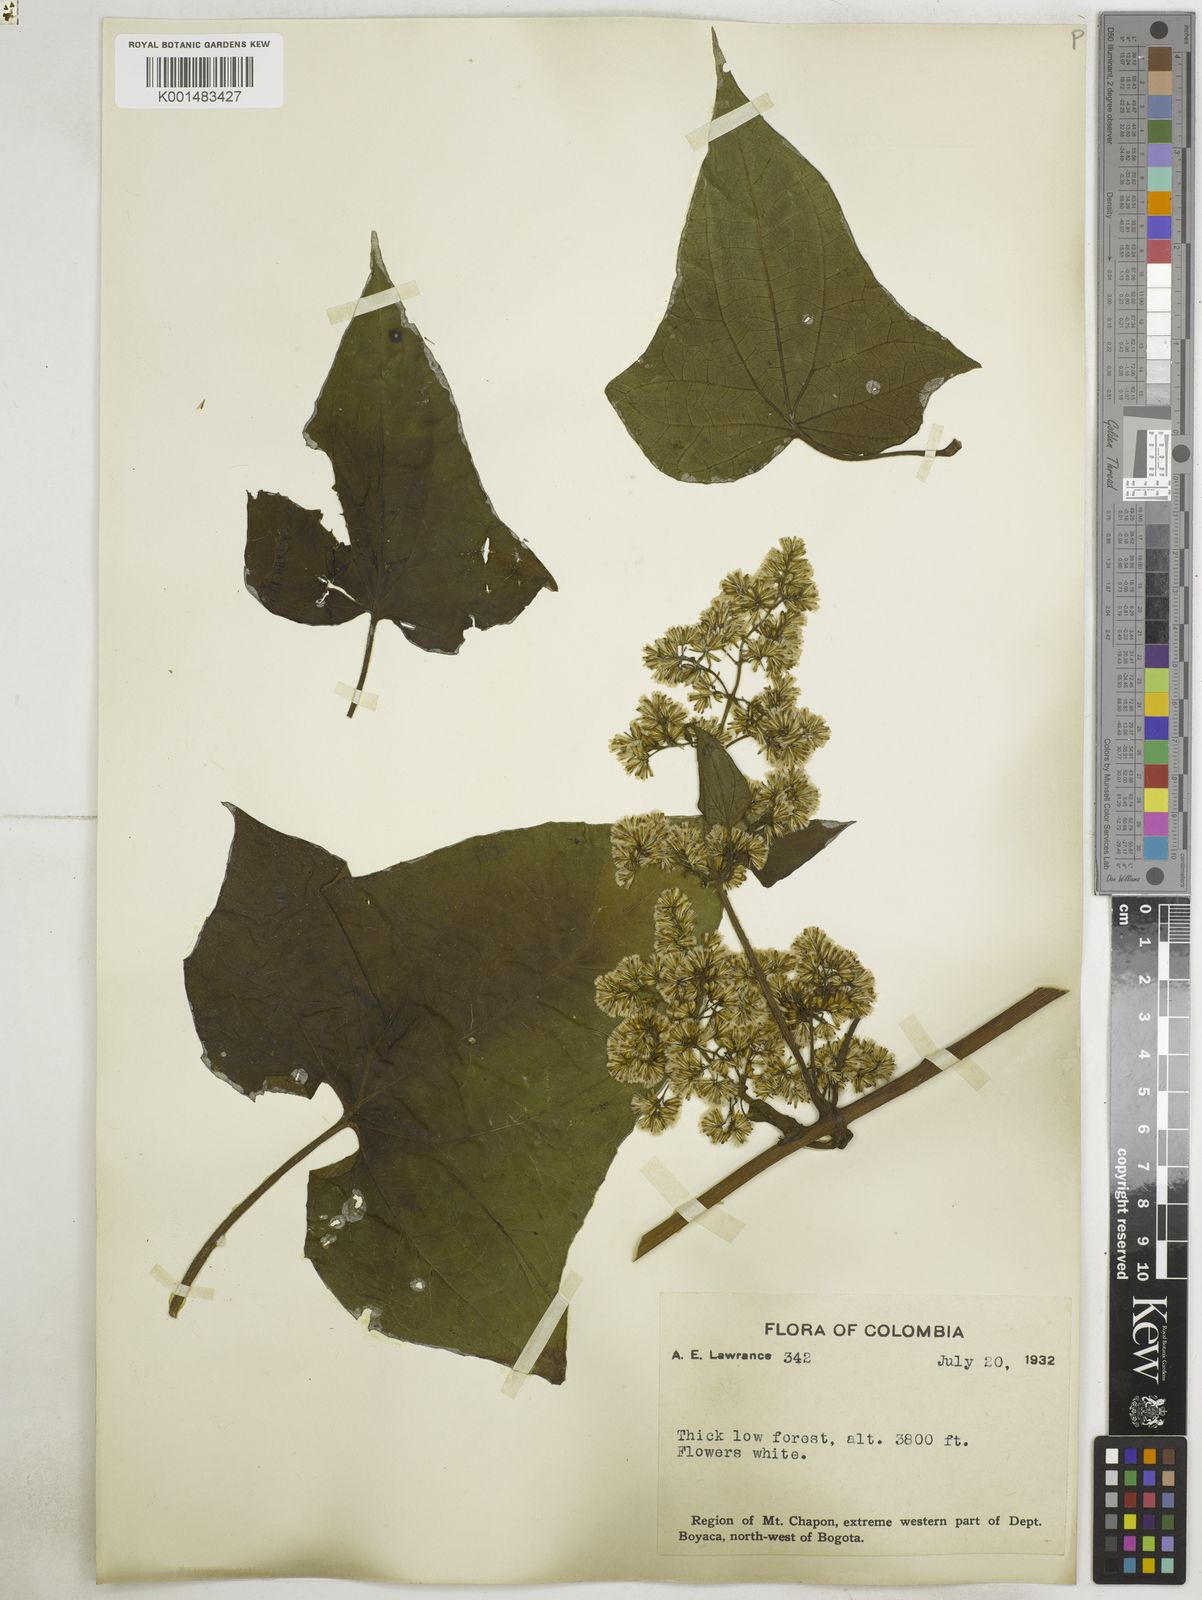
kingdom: Plantae
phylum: Tracheophyta
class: Magnoliopsida
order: Asterales
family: Asteraceae
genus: Mikania
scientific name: Mikania pteropoda
